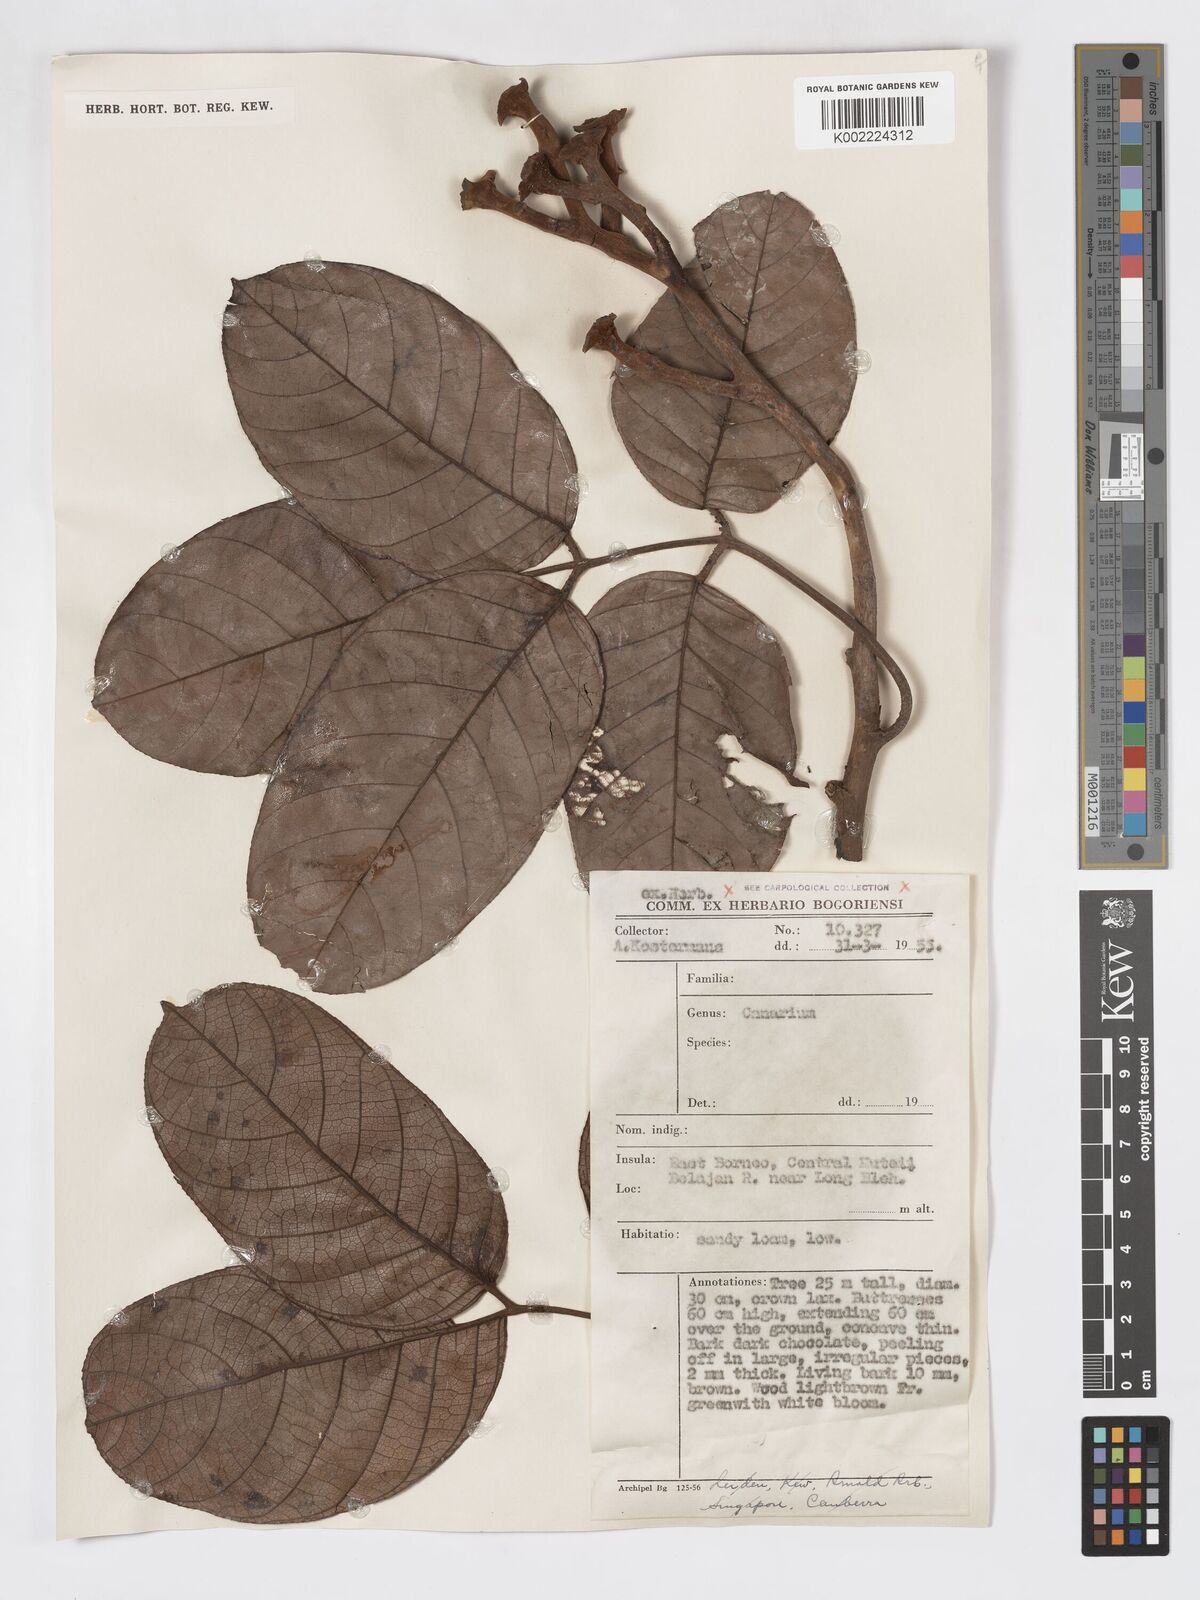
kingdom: Plantae
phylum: Tracheophyta
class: Magnoliopsida
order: Sapindales
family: Burseraceae
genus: Canarium
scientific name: Canarium
